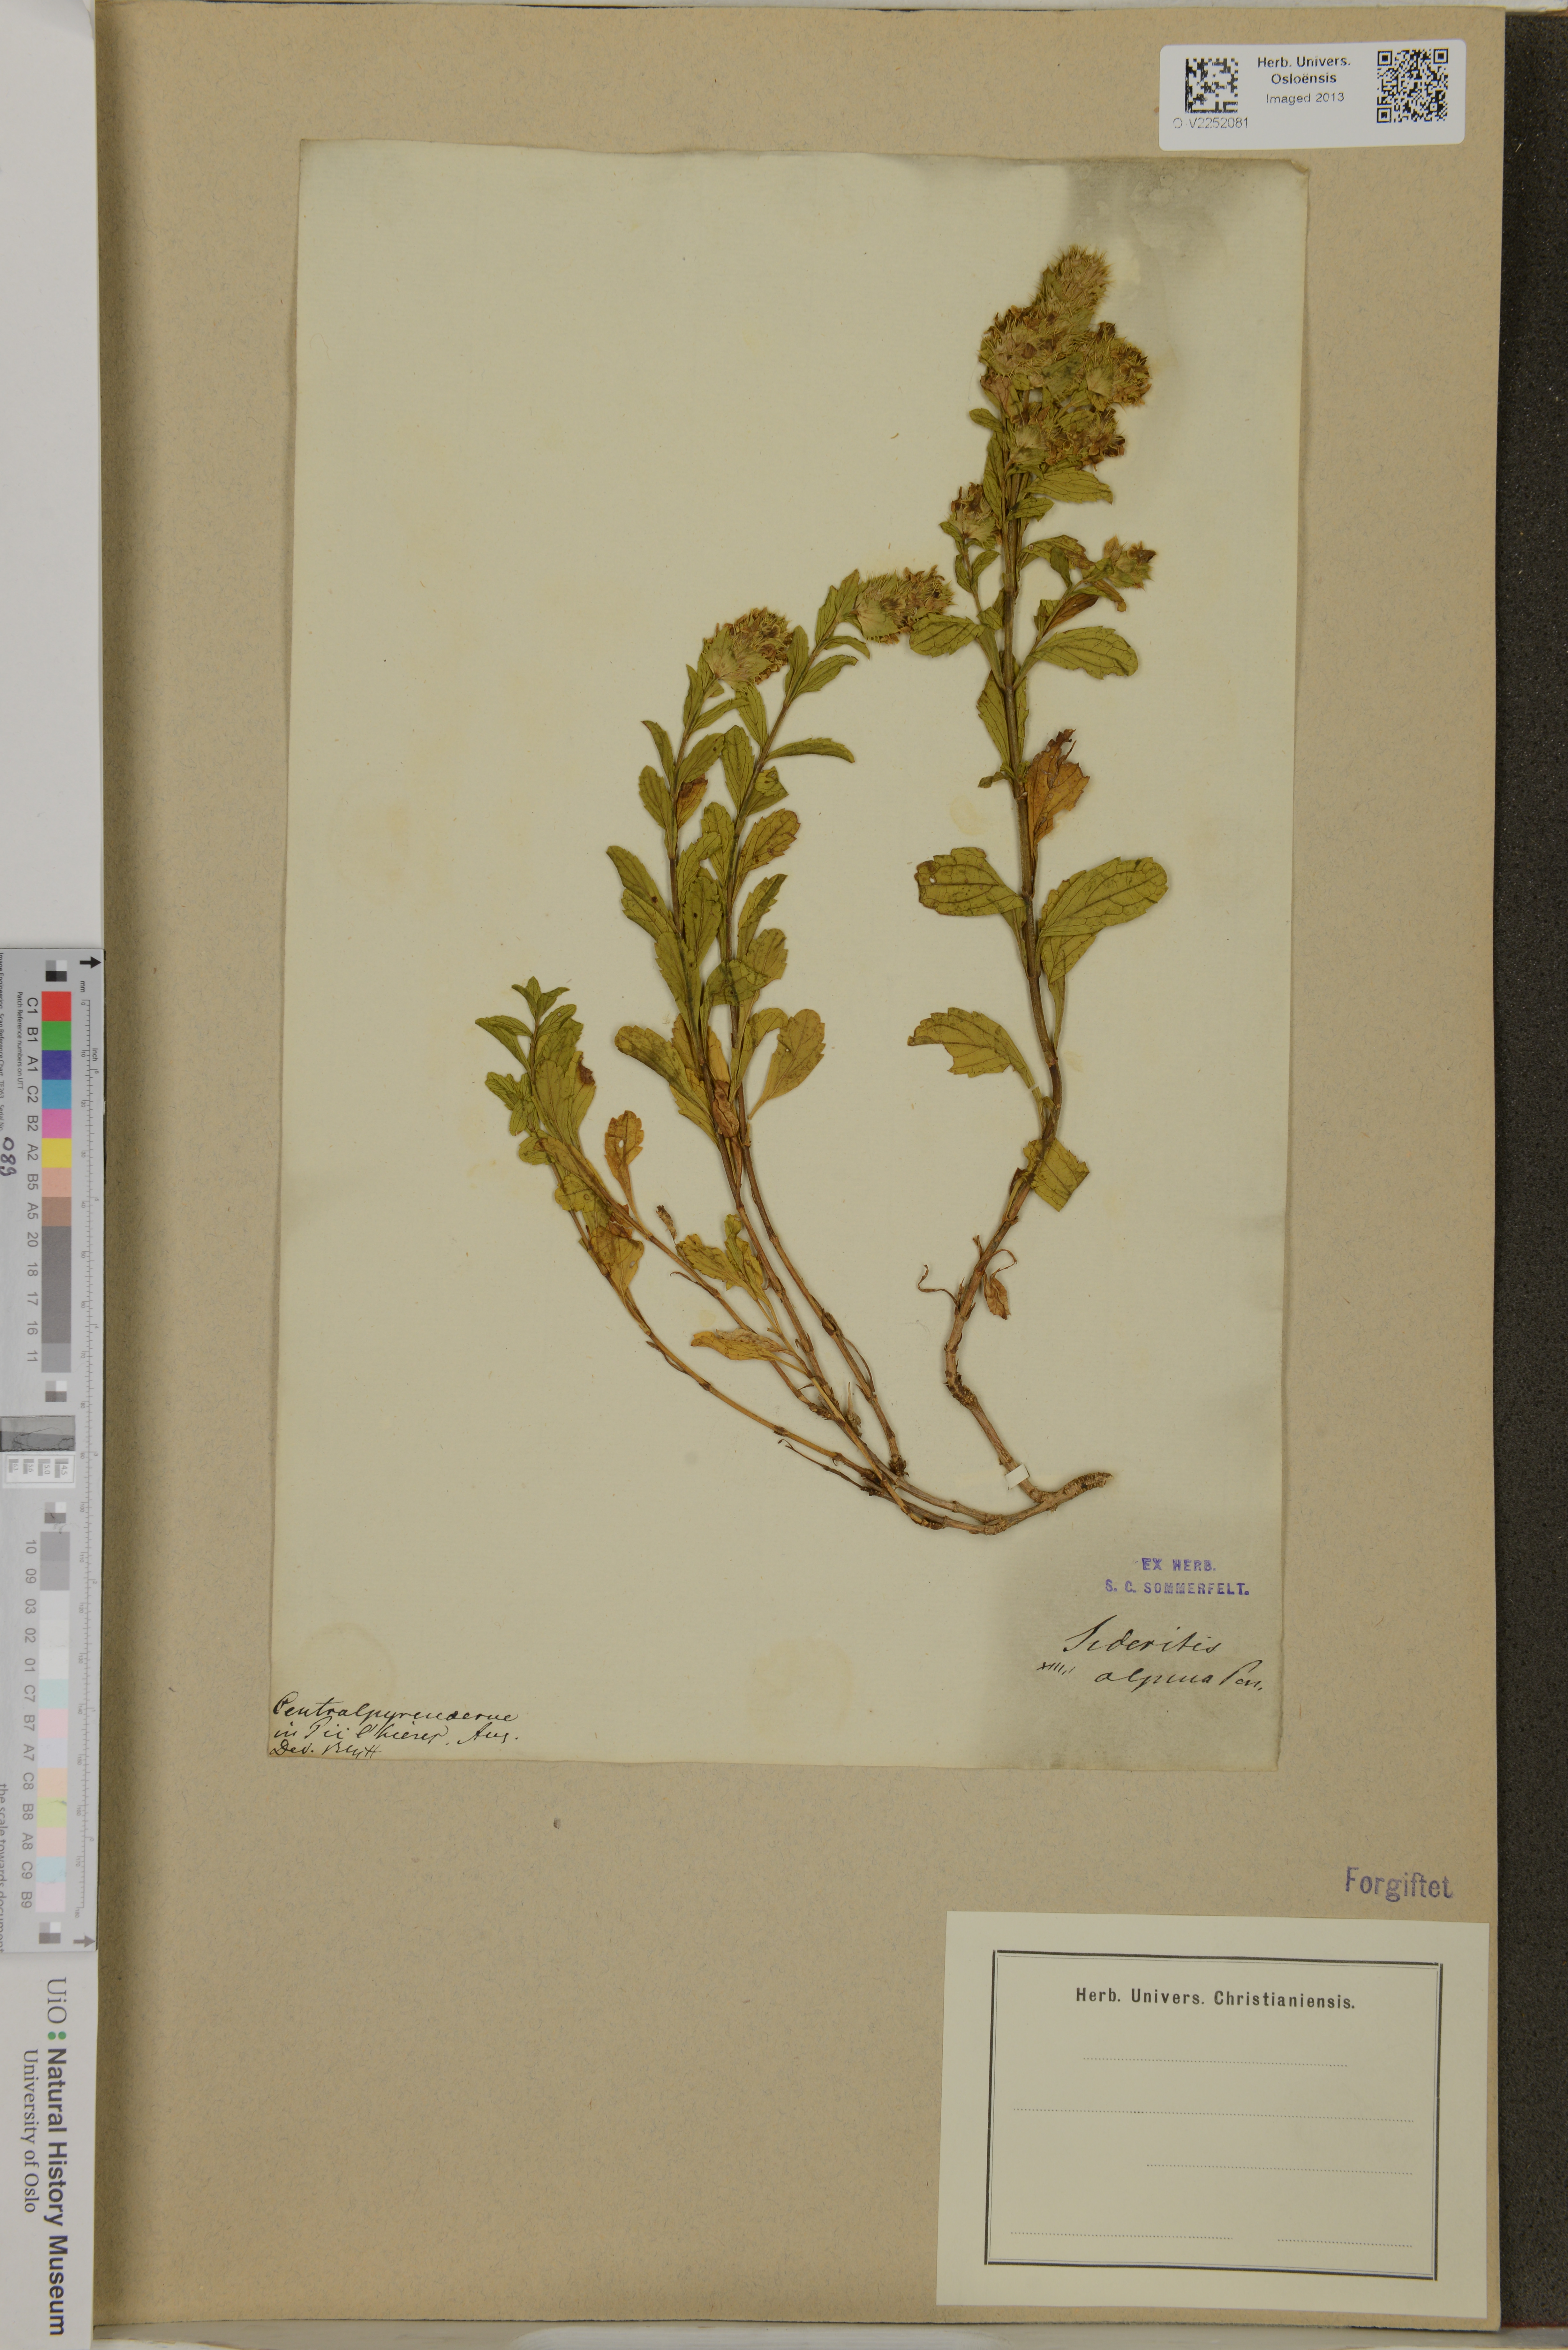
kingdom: Plantae
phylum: Tracheophyta
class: Magnoliopsida
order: Lamiales
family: Lamiaceae
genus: Sideritis
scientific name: Sideritis hyssopifolia
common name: Mountain tea
